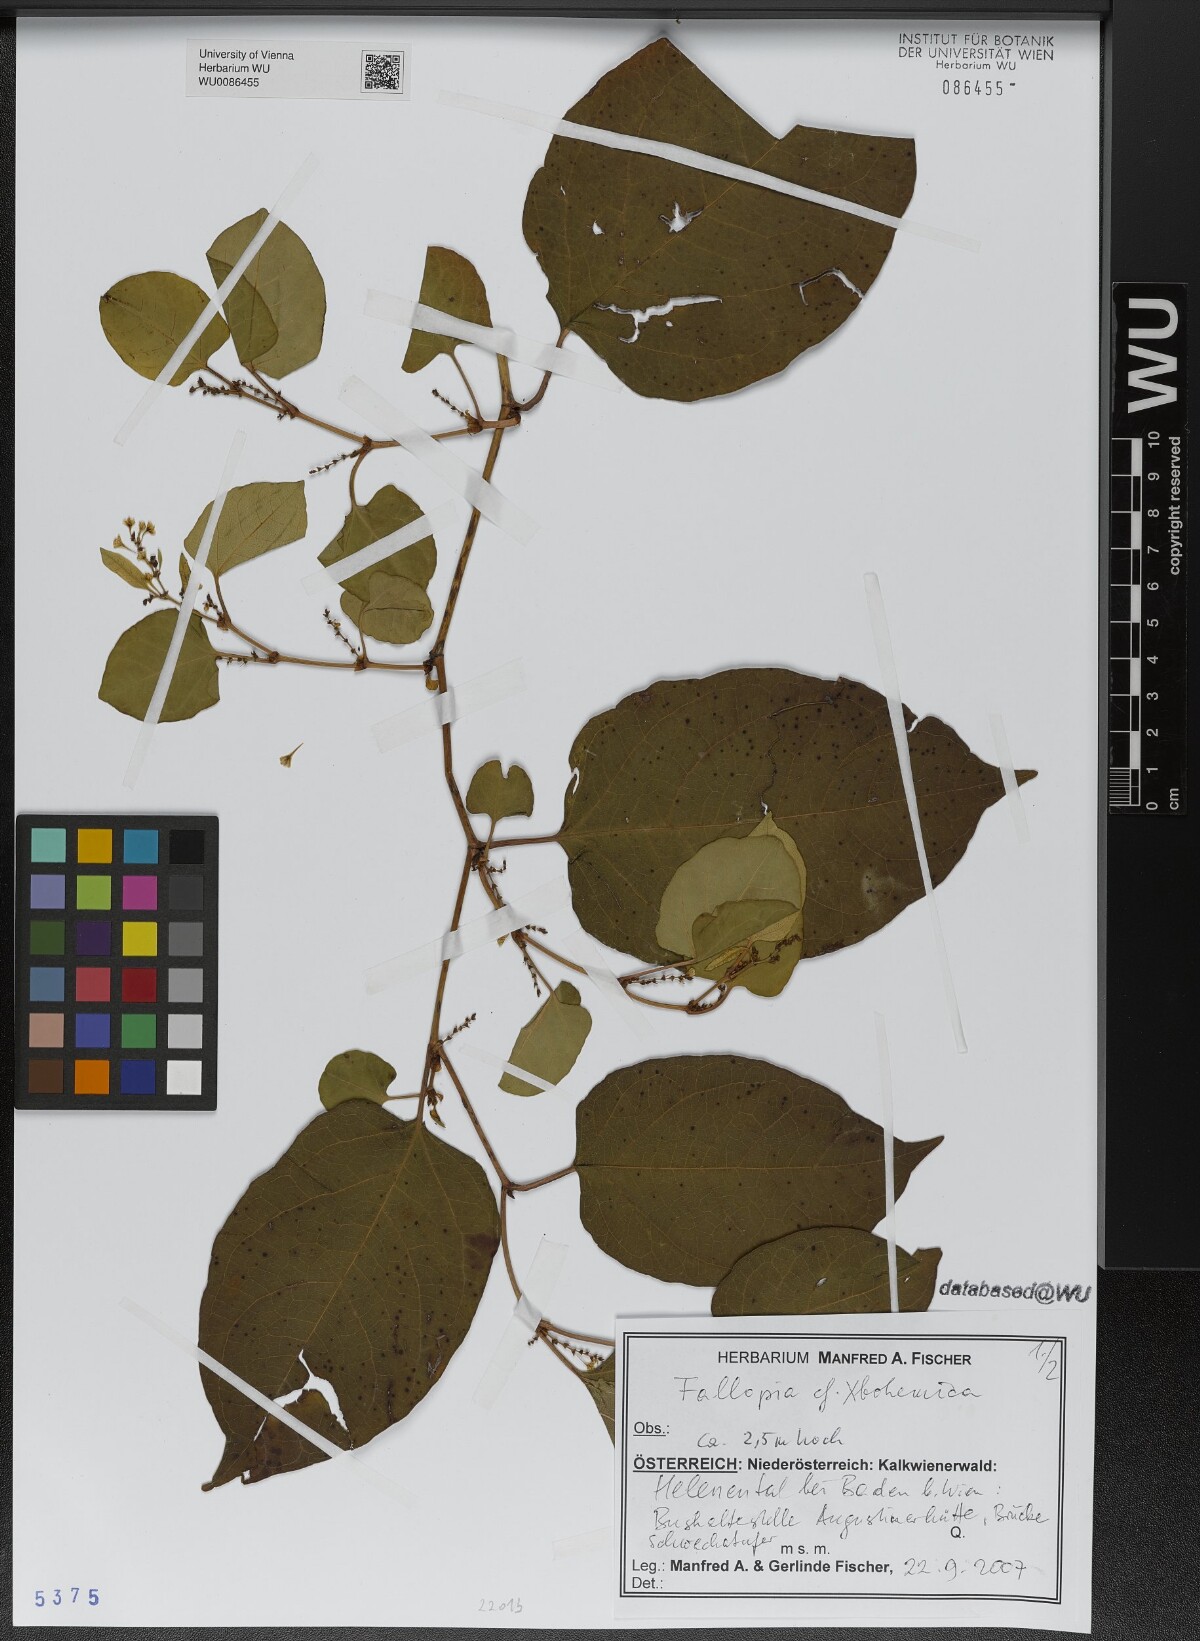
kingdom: Plantae
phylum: Tracheophyta
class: Magnoliopsida
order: Caryophyllales
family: Polygonaceae
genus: Reynoutria
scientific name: Reynoutria bohemica
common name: Bohemian knotweed
